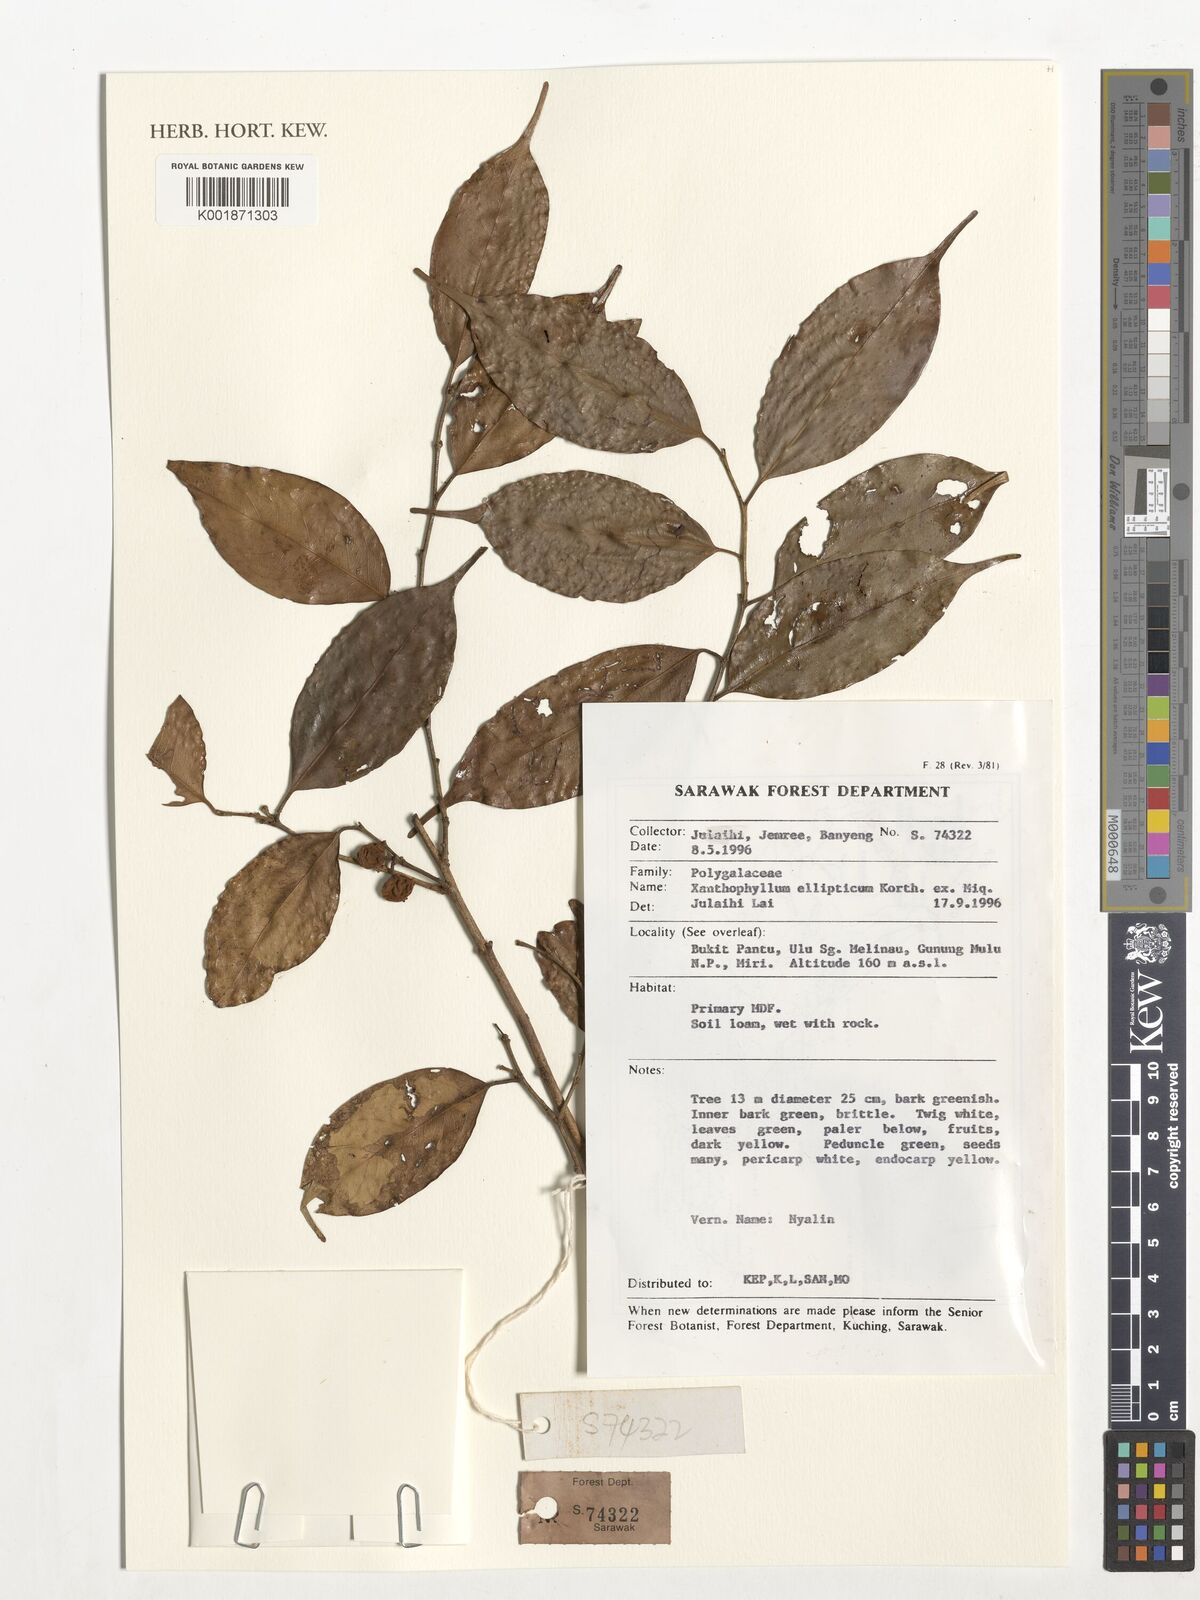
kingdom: Plantae
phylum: Tracheophyta
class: Magnoliopsida
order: Fabales
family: Polygalaceae
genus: Xanthophyllum
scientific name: Xanthophyllum ellipticum
